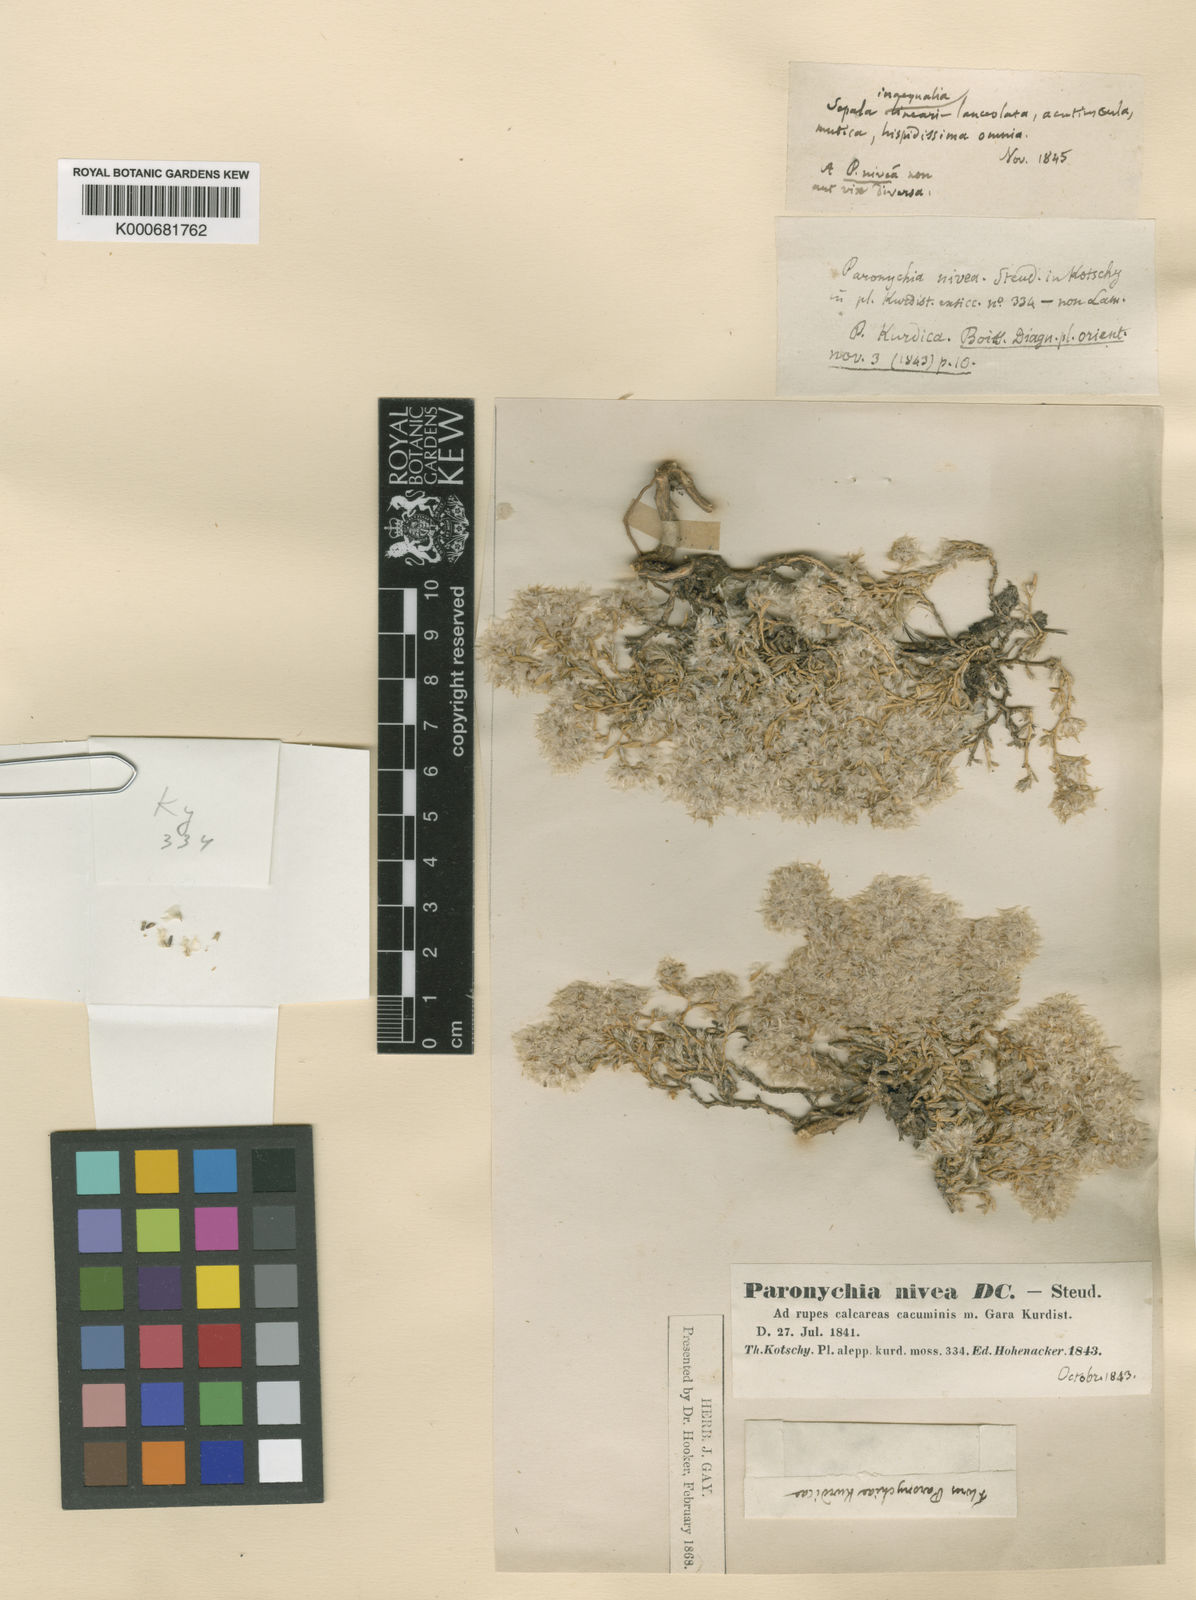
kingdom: Plantae
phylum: Tracheophyta
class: Magnoliopsida
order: Caryophyllales
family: Caryophyllaceae
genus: Paronychia
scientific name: Paronychia kurdica
